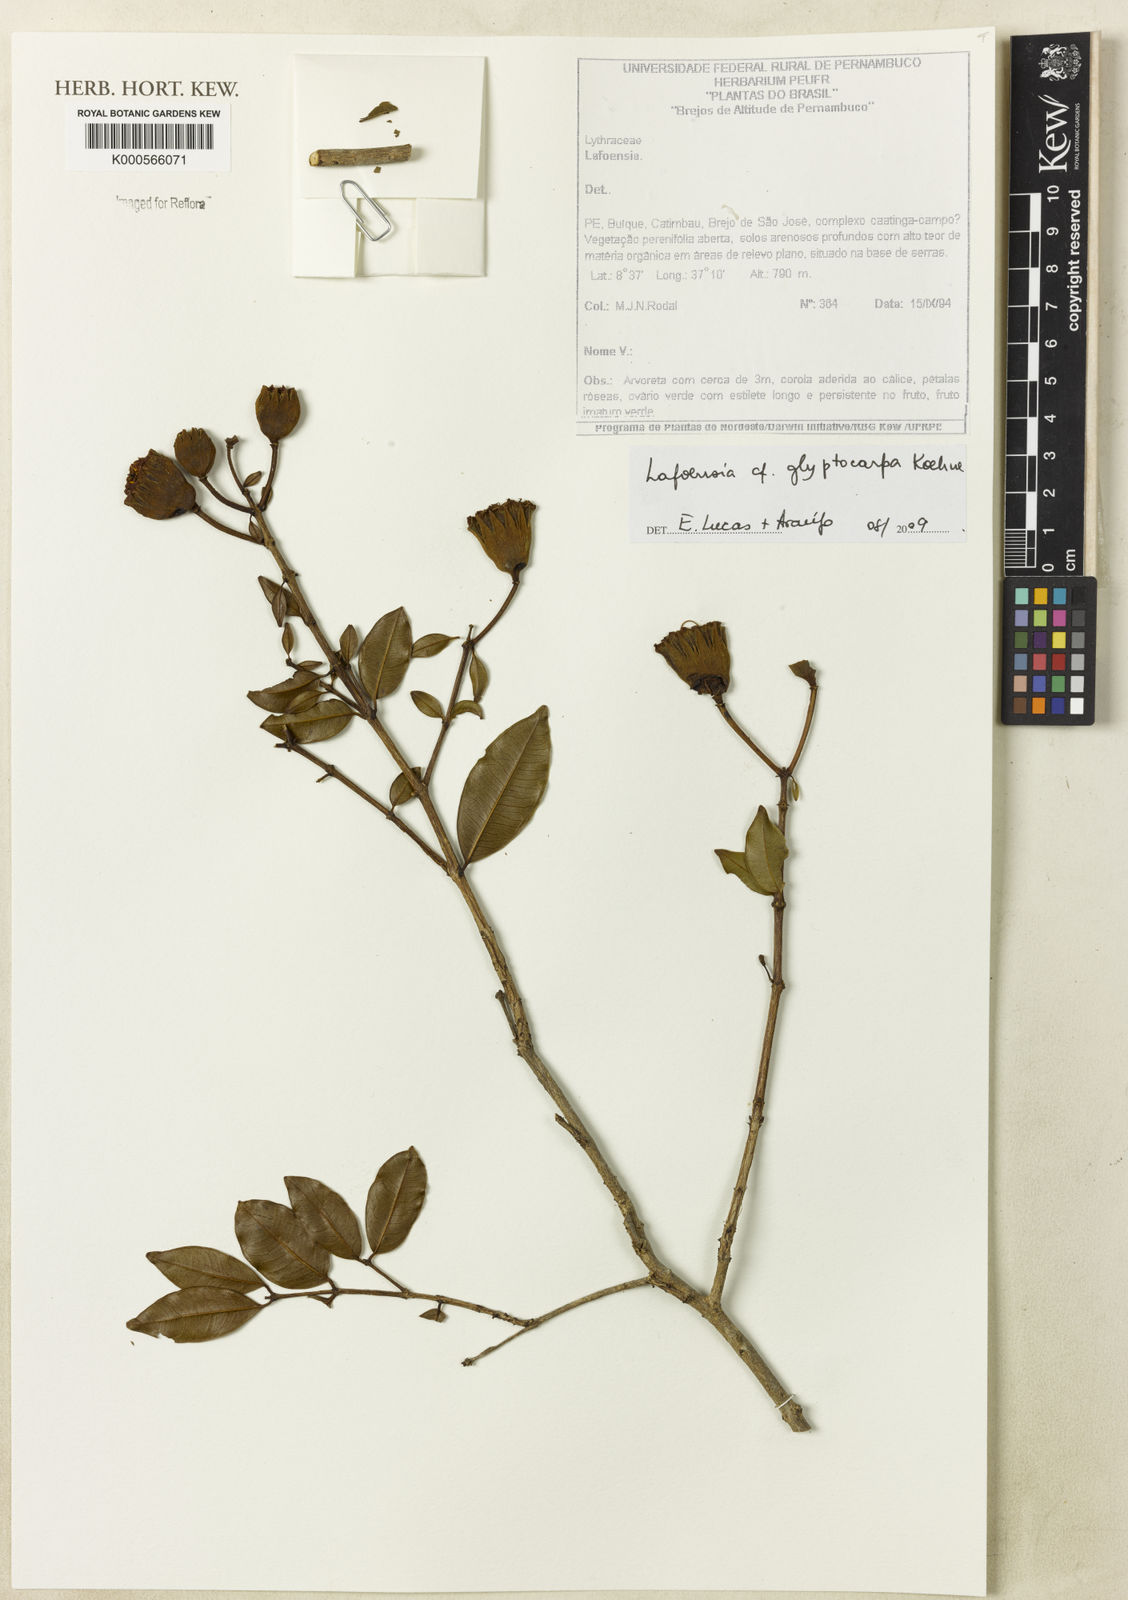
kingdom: Plantae
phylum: Tracheophyta
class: Magnoliopsida
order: Myrtales
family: Lythraceae
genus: Lafoensia
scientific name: Lafoensia glyptocarpa
